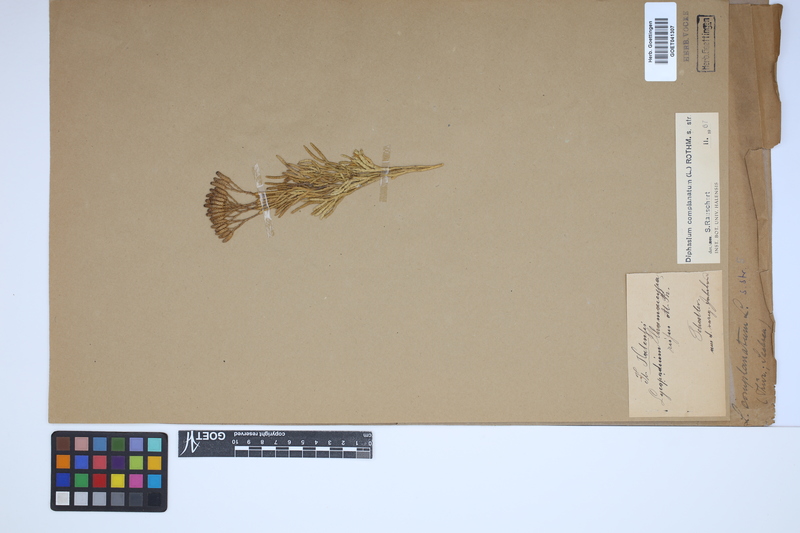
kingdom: Plantae
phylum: Tracheophyta
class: Lycopodiopsida
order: Lycopodiales
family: Lycopodiaceae
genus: Diphasiastrum
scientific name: Diphasiastrum complanatum
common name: Northern running-pine
